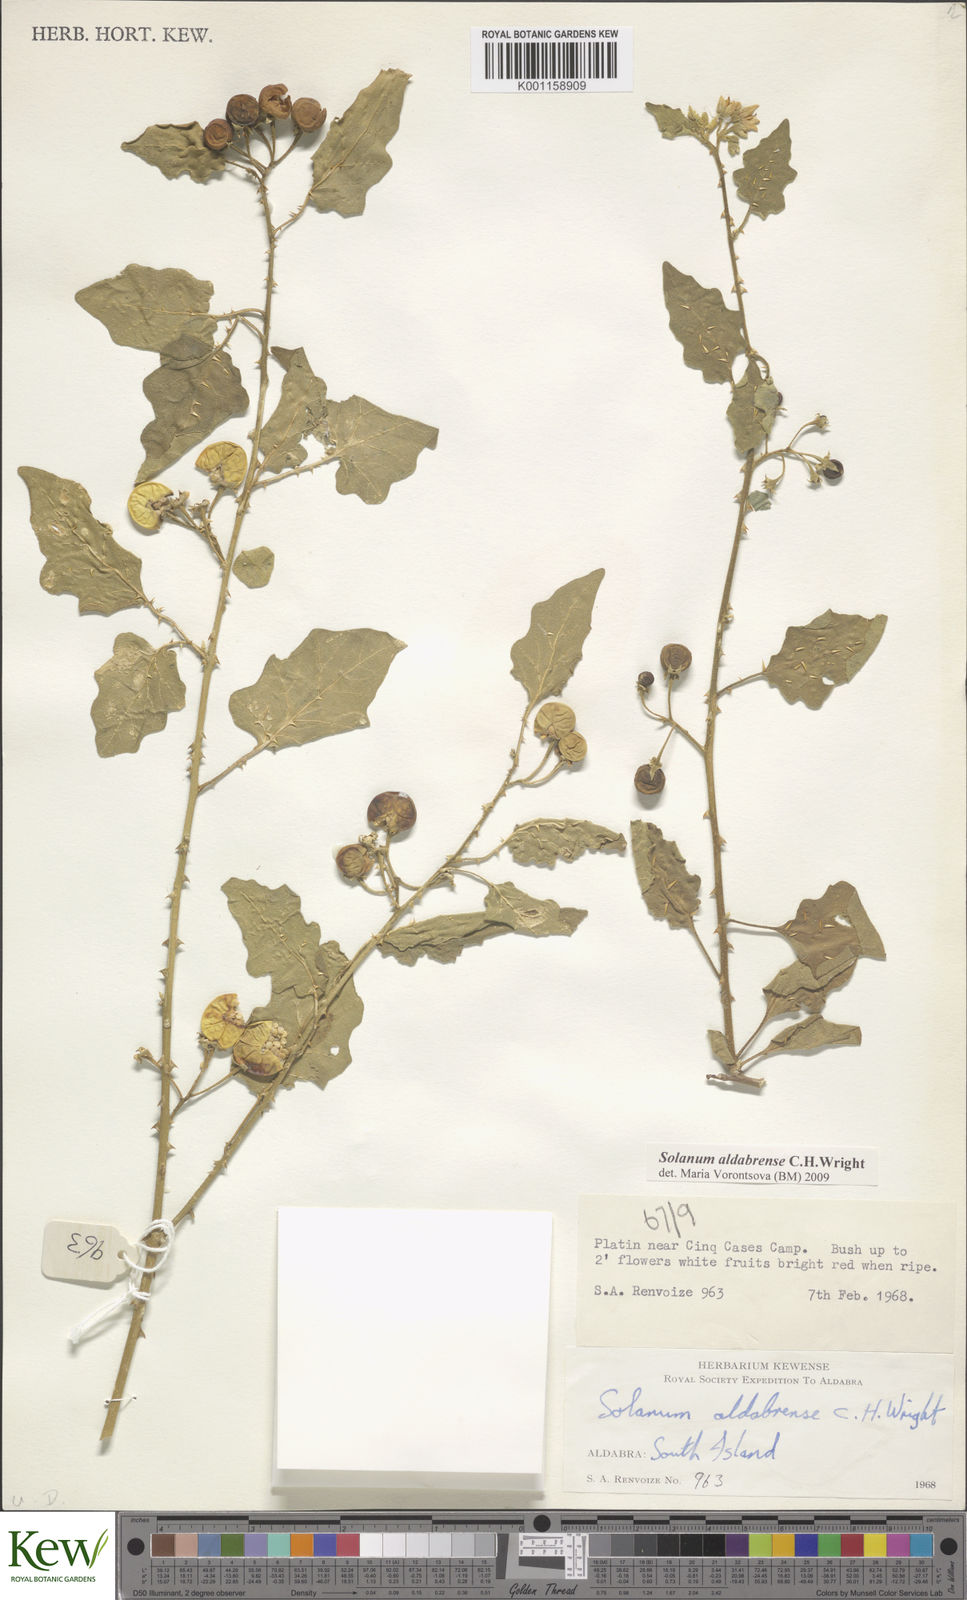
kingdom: Plantae
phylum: Tracheophyta
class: Magnoliopsida
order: Solanales
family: Solanaceae
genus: Solanum
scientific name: Solanum aldabrense
